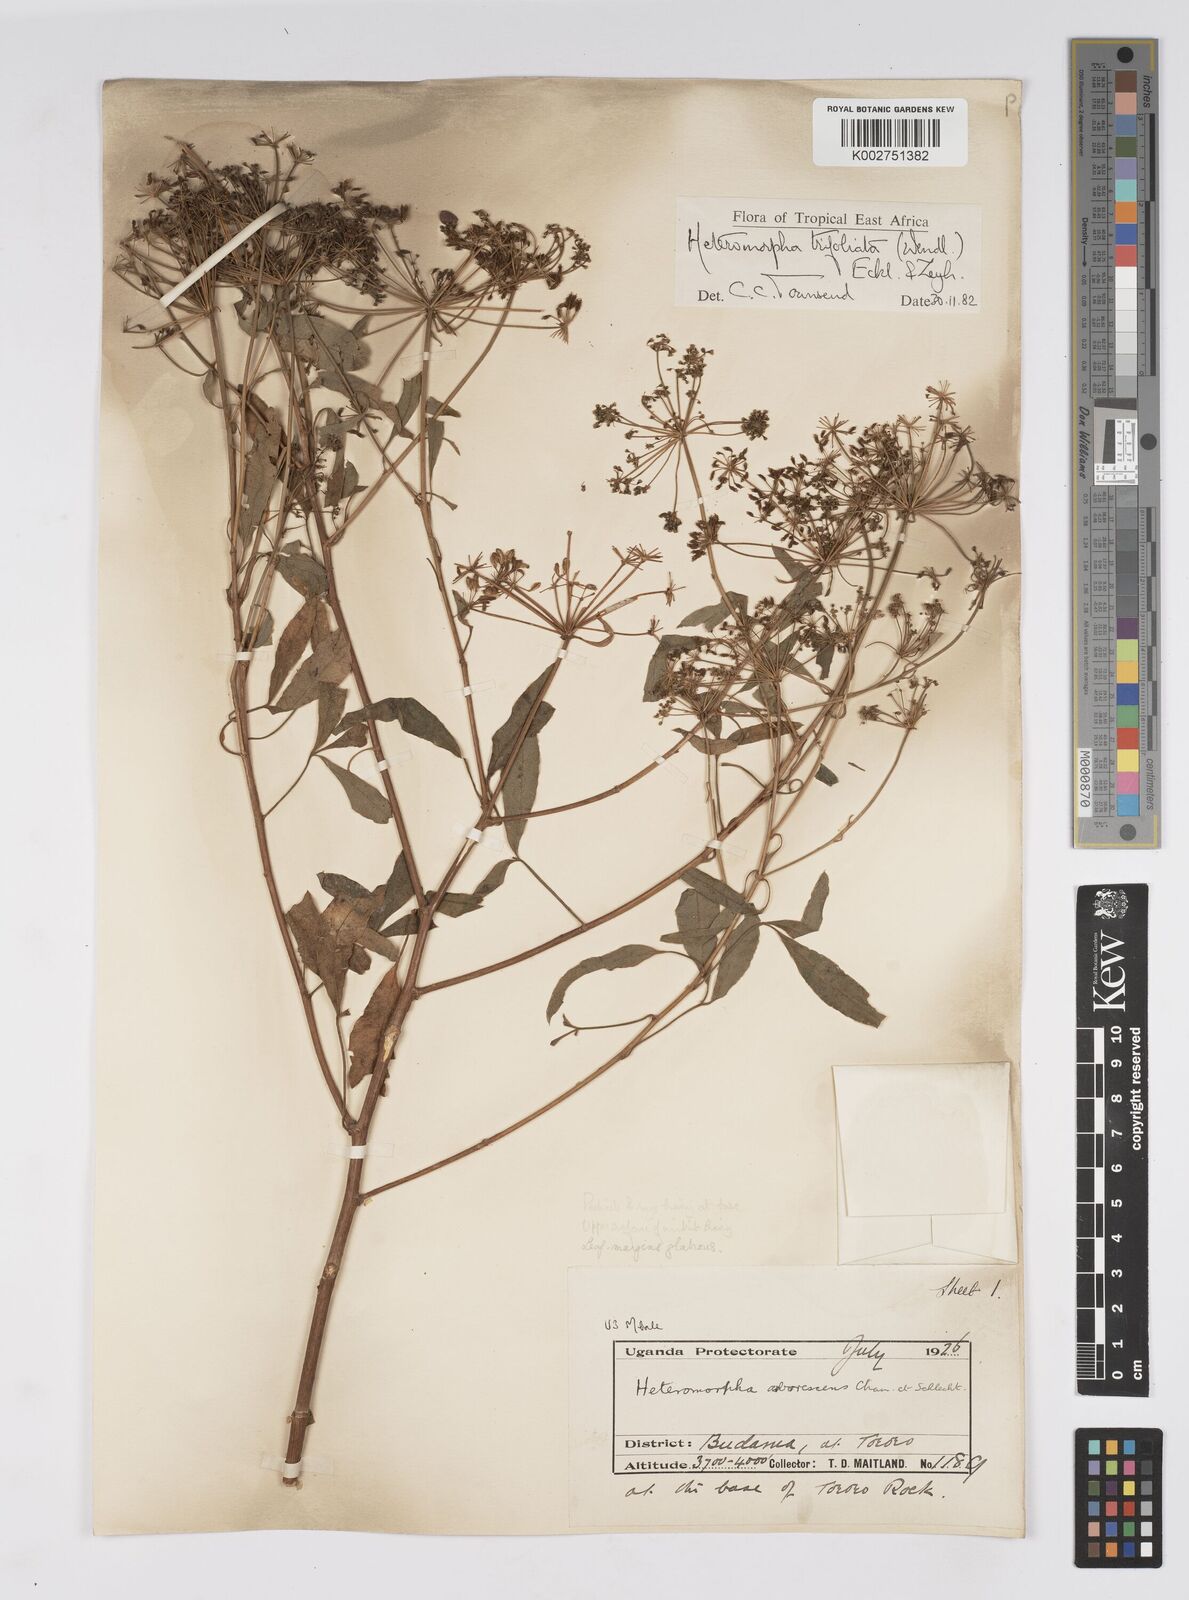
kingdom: Plantae
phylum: Tracheophyta
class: Magnoliopsida
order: Apiales
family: Apiaceae
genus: Heteromorpha
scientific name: Heteromorpha arborescens
